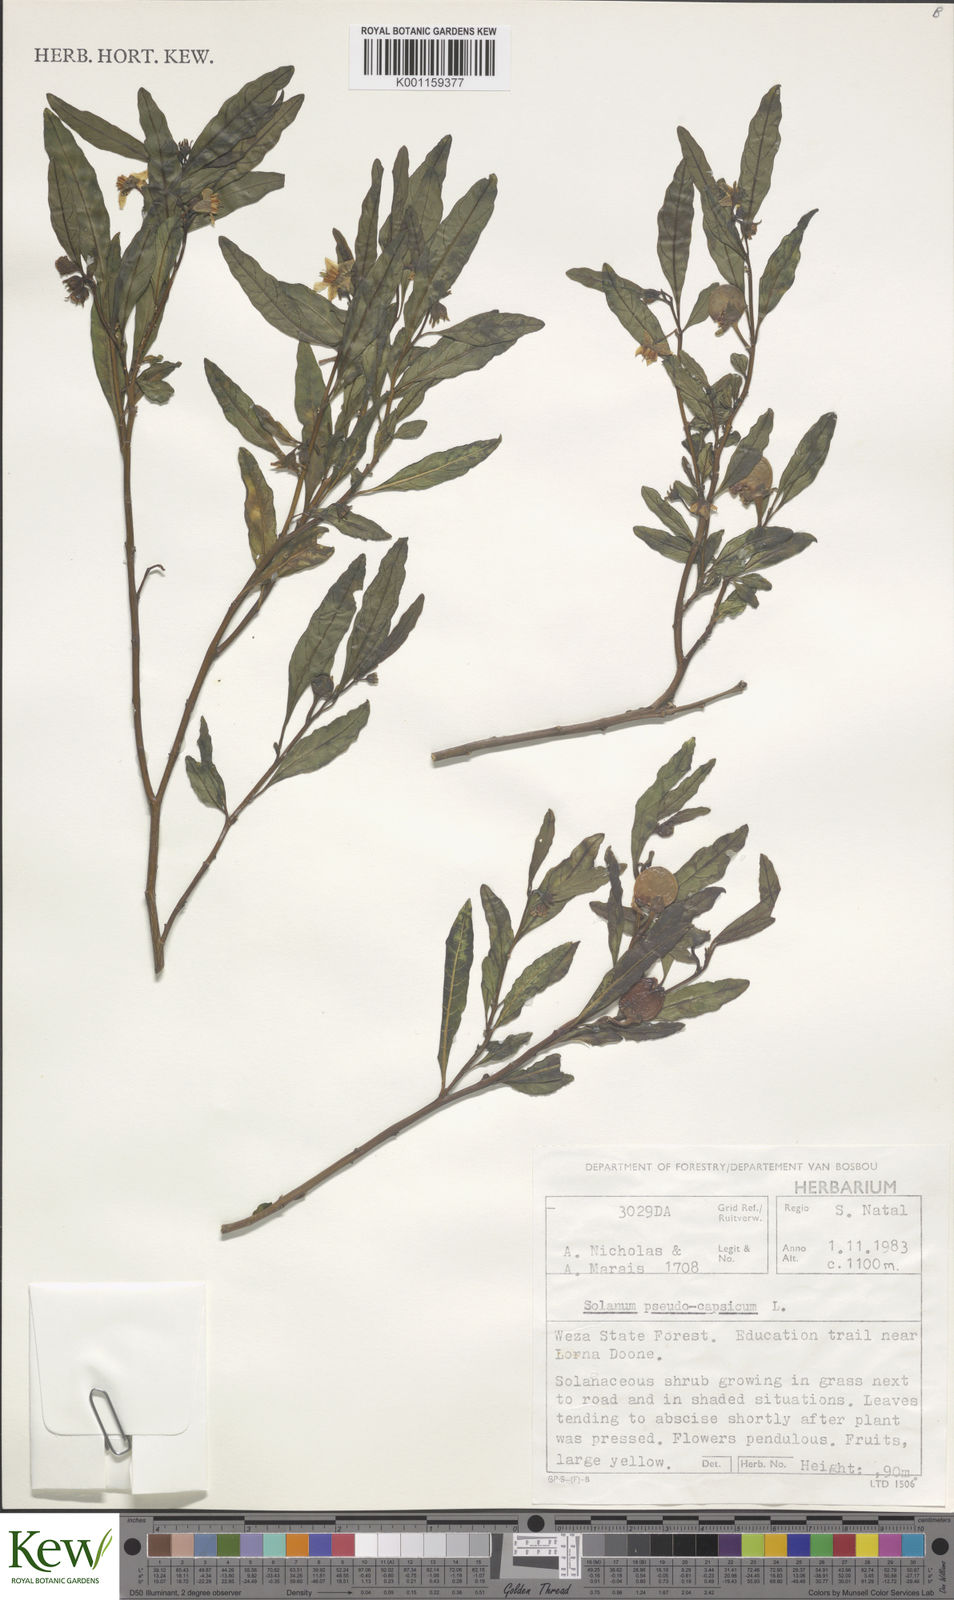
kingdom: Plantae
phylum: Tracheophyta
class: Magnoliopsida
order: Solanales
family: Solanaceae
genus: Solanum
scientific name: Solanum pseudocapsicum
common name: Jerusalem cherry
